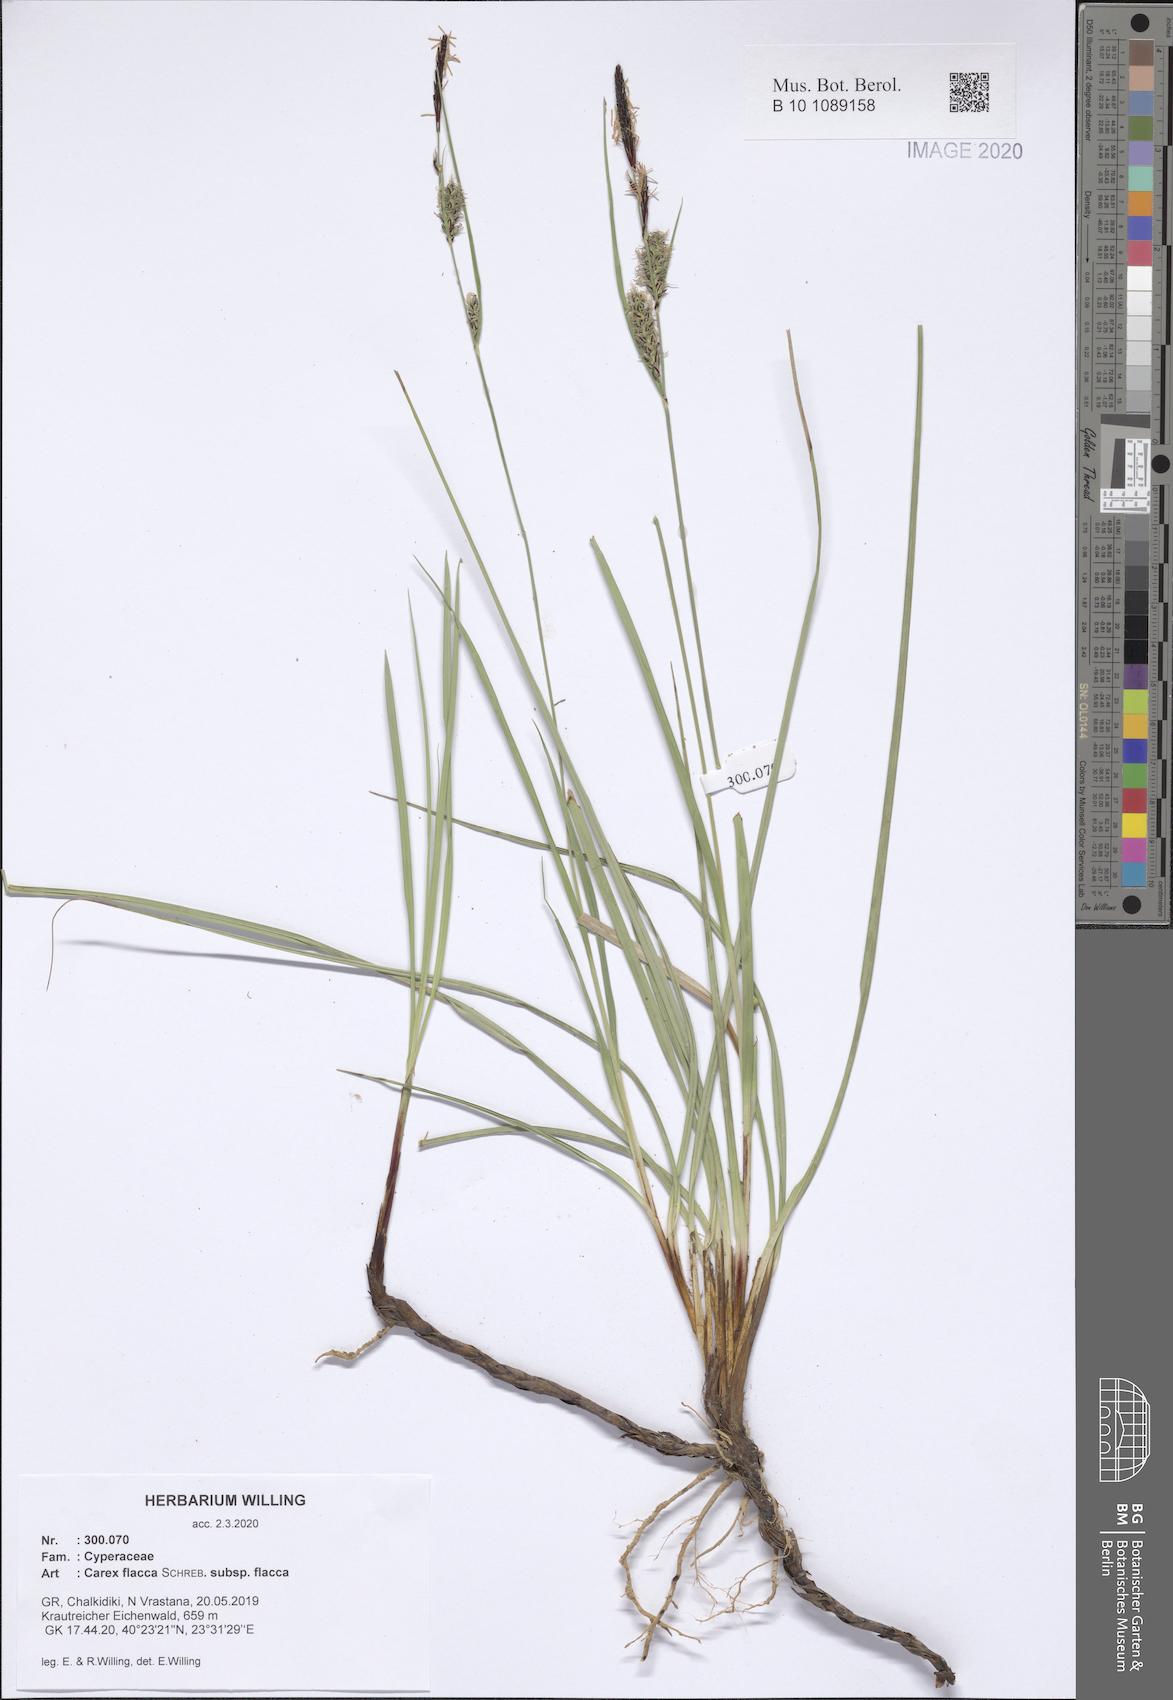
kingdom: Plantae
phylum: Tracheophyta
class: Liliopsida
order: Poales
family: Cyperaceae
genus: Carex
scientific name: Carex flacca
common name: Glaucous sedge
